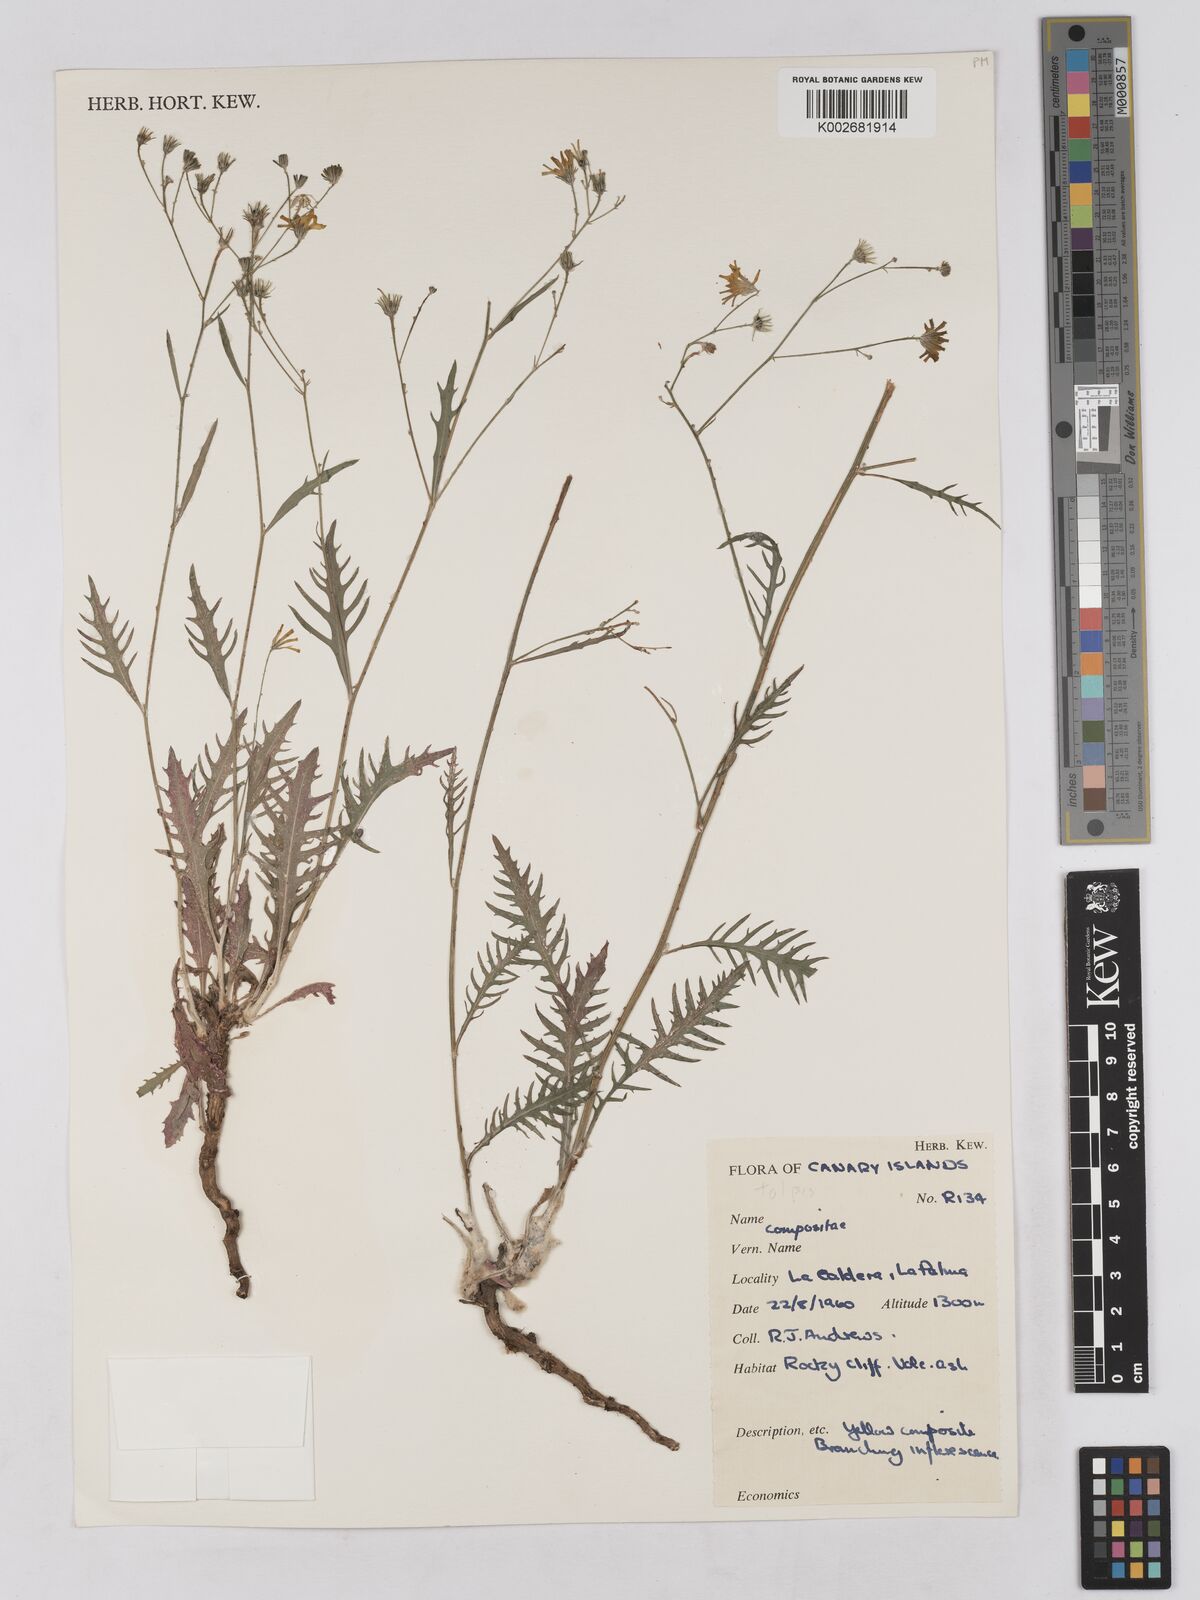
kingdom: Plantae
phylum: Tracheophyta
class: Magnoliopsida
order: Asterales
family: Asteraceae
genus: Tolpis
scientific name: Tolpis laciniata
